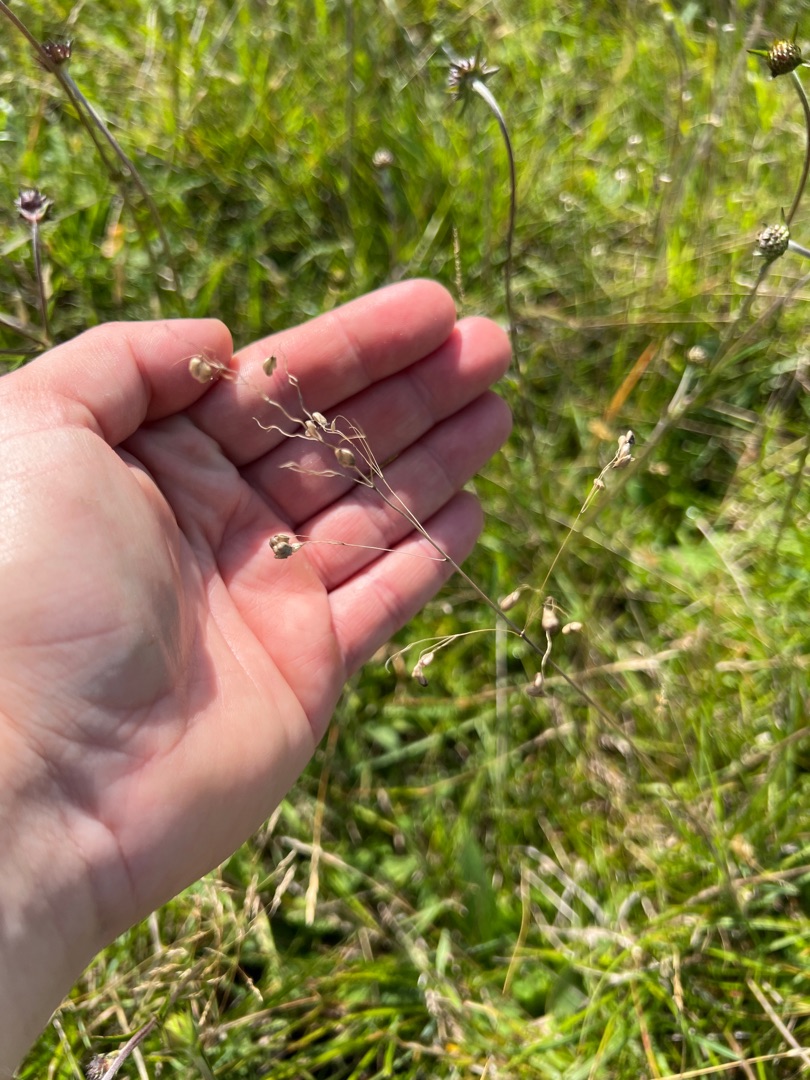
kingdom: Plantae
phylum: Tracheophyta
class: Liliopsida
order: Poales
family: Poaceae
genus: Briza
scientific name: Briza media
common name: Hjertegræs
